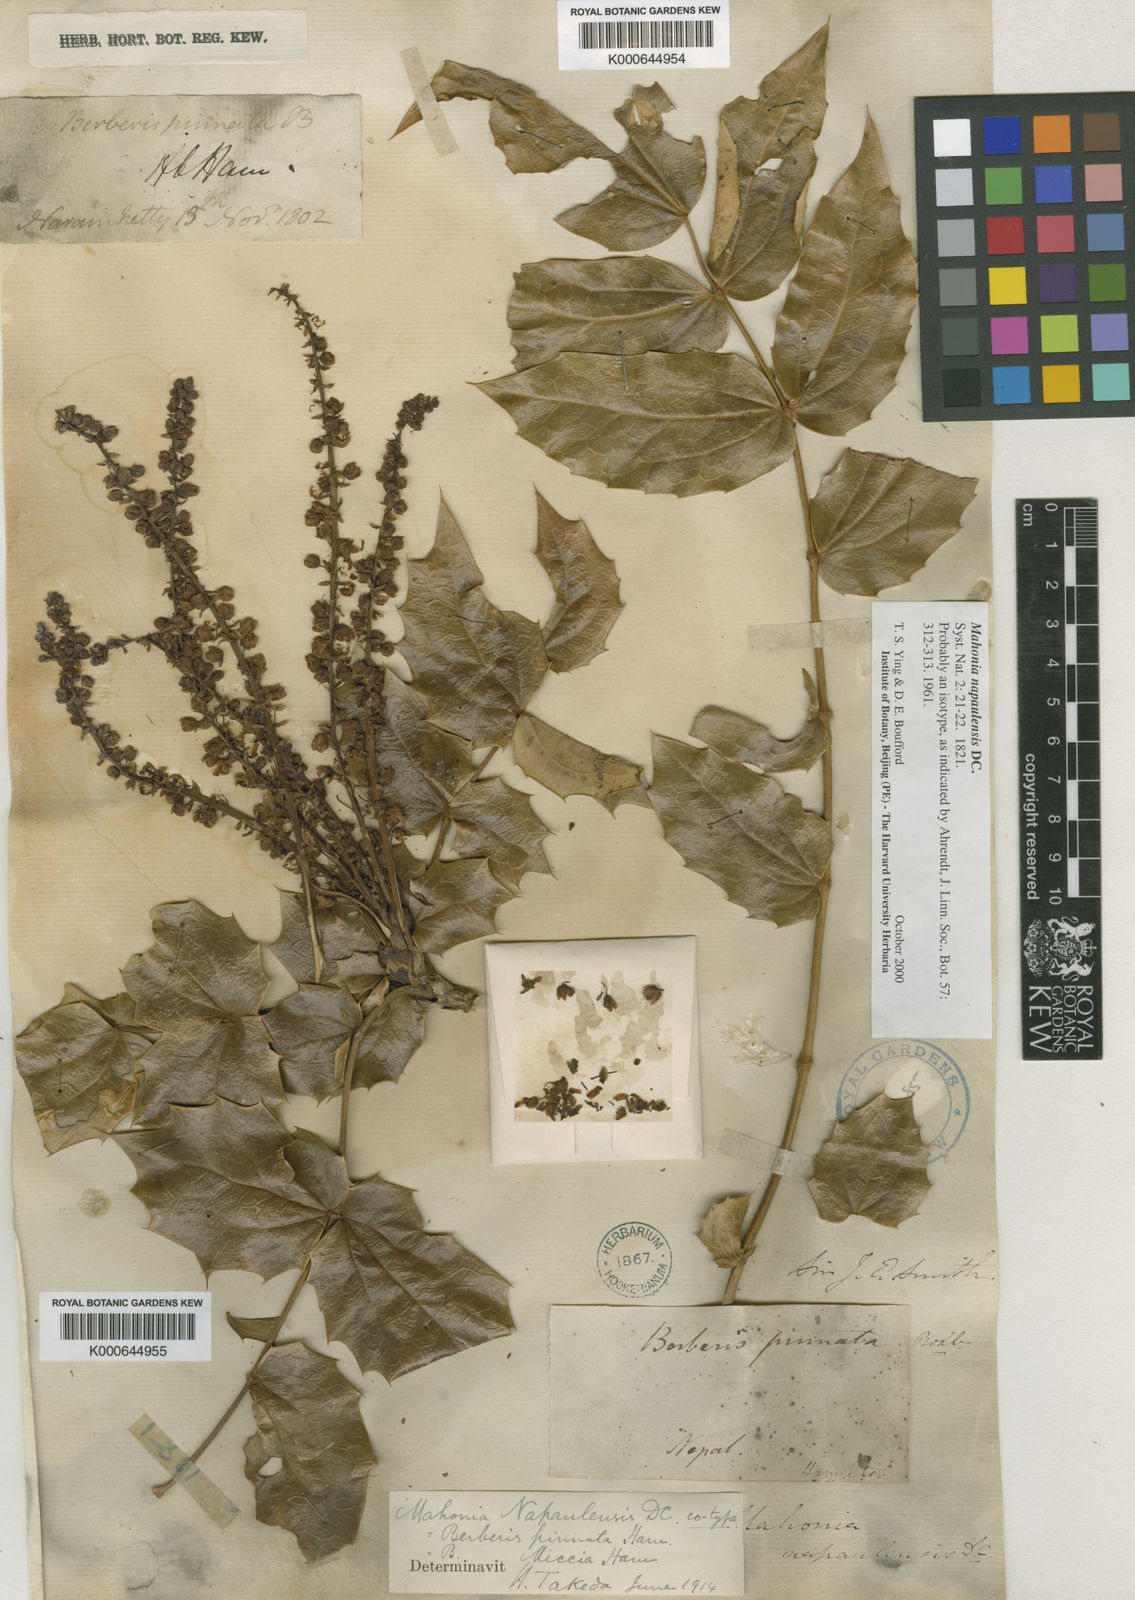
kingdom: Plantae
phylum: Tracheophyta
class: Magnoliopsida
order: Ranunculales
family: Berberidaceae
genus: Mahonia
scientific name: Mahonia napaulensis
